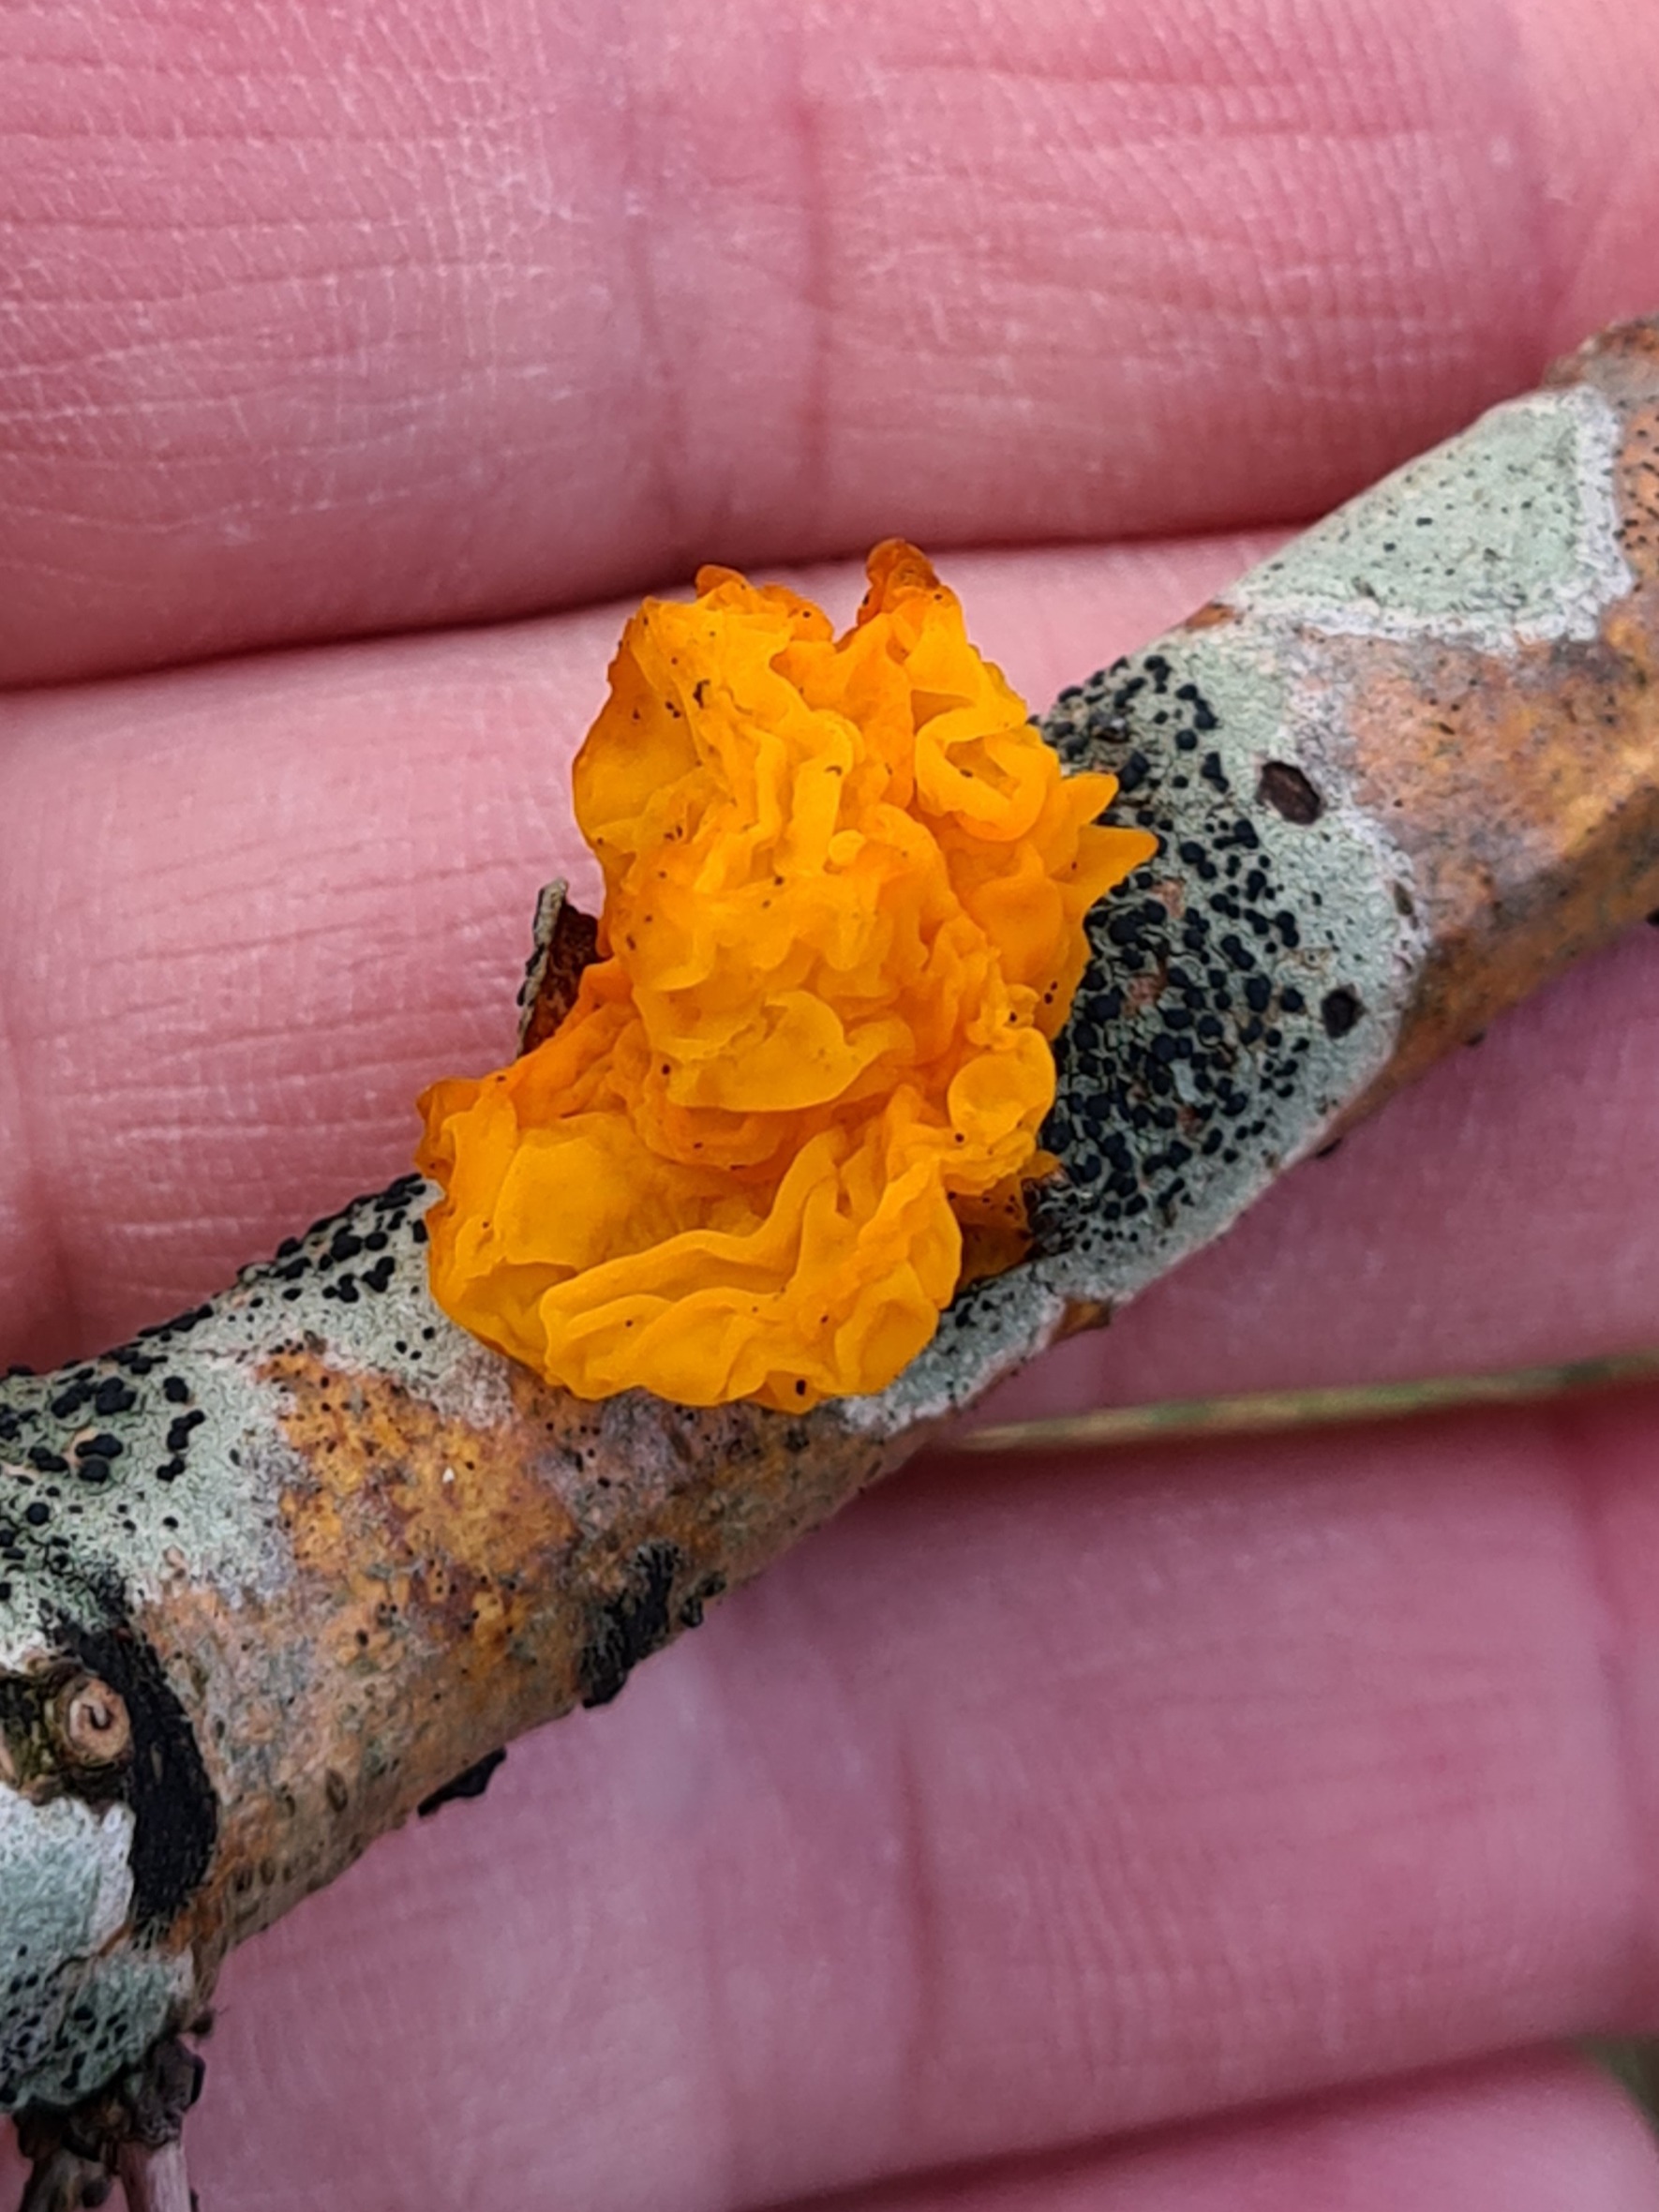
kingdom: Fungi
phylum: Basidiomycota
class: Tremellomycetes
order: Tremellales
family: Tremellaceae
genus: Tremella
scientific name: Tremella mesenterica
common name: Gul bævresvamp
